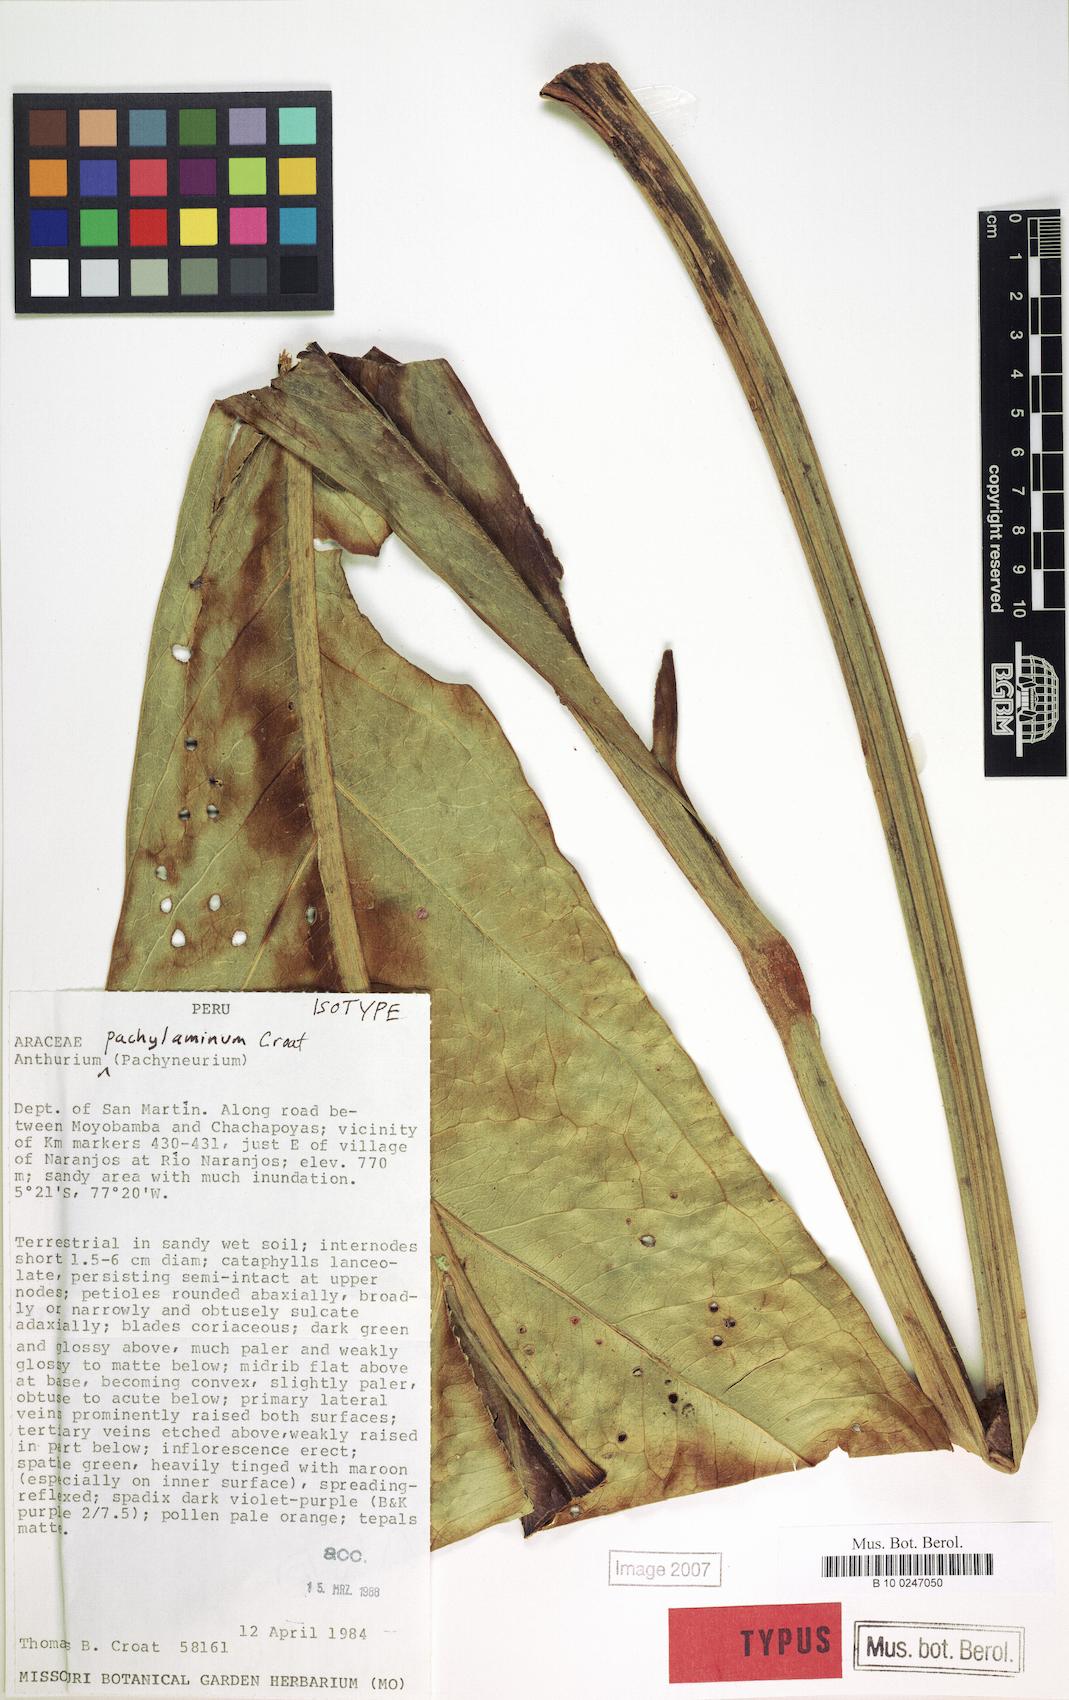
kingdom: Plantae
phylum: Tracheophyta
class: Liliopsida
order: Alismatales
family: Araceae
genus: Anthurium
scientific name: Anthurium pachylaminum
